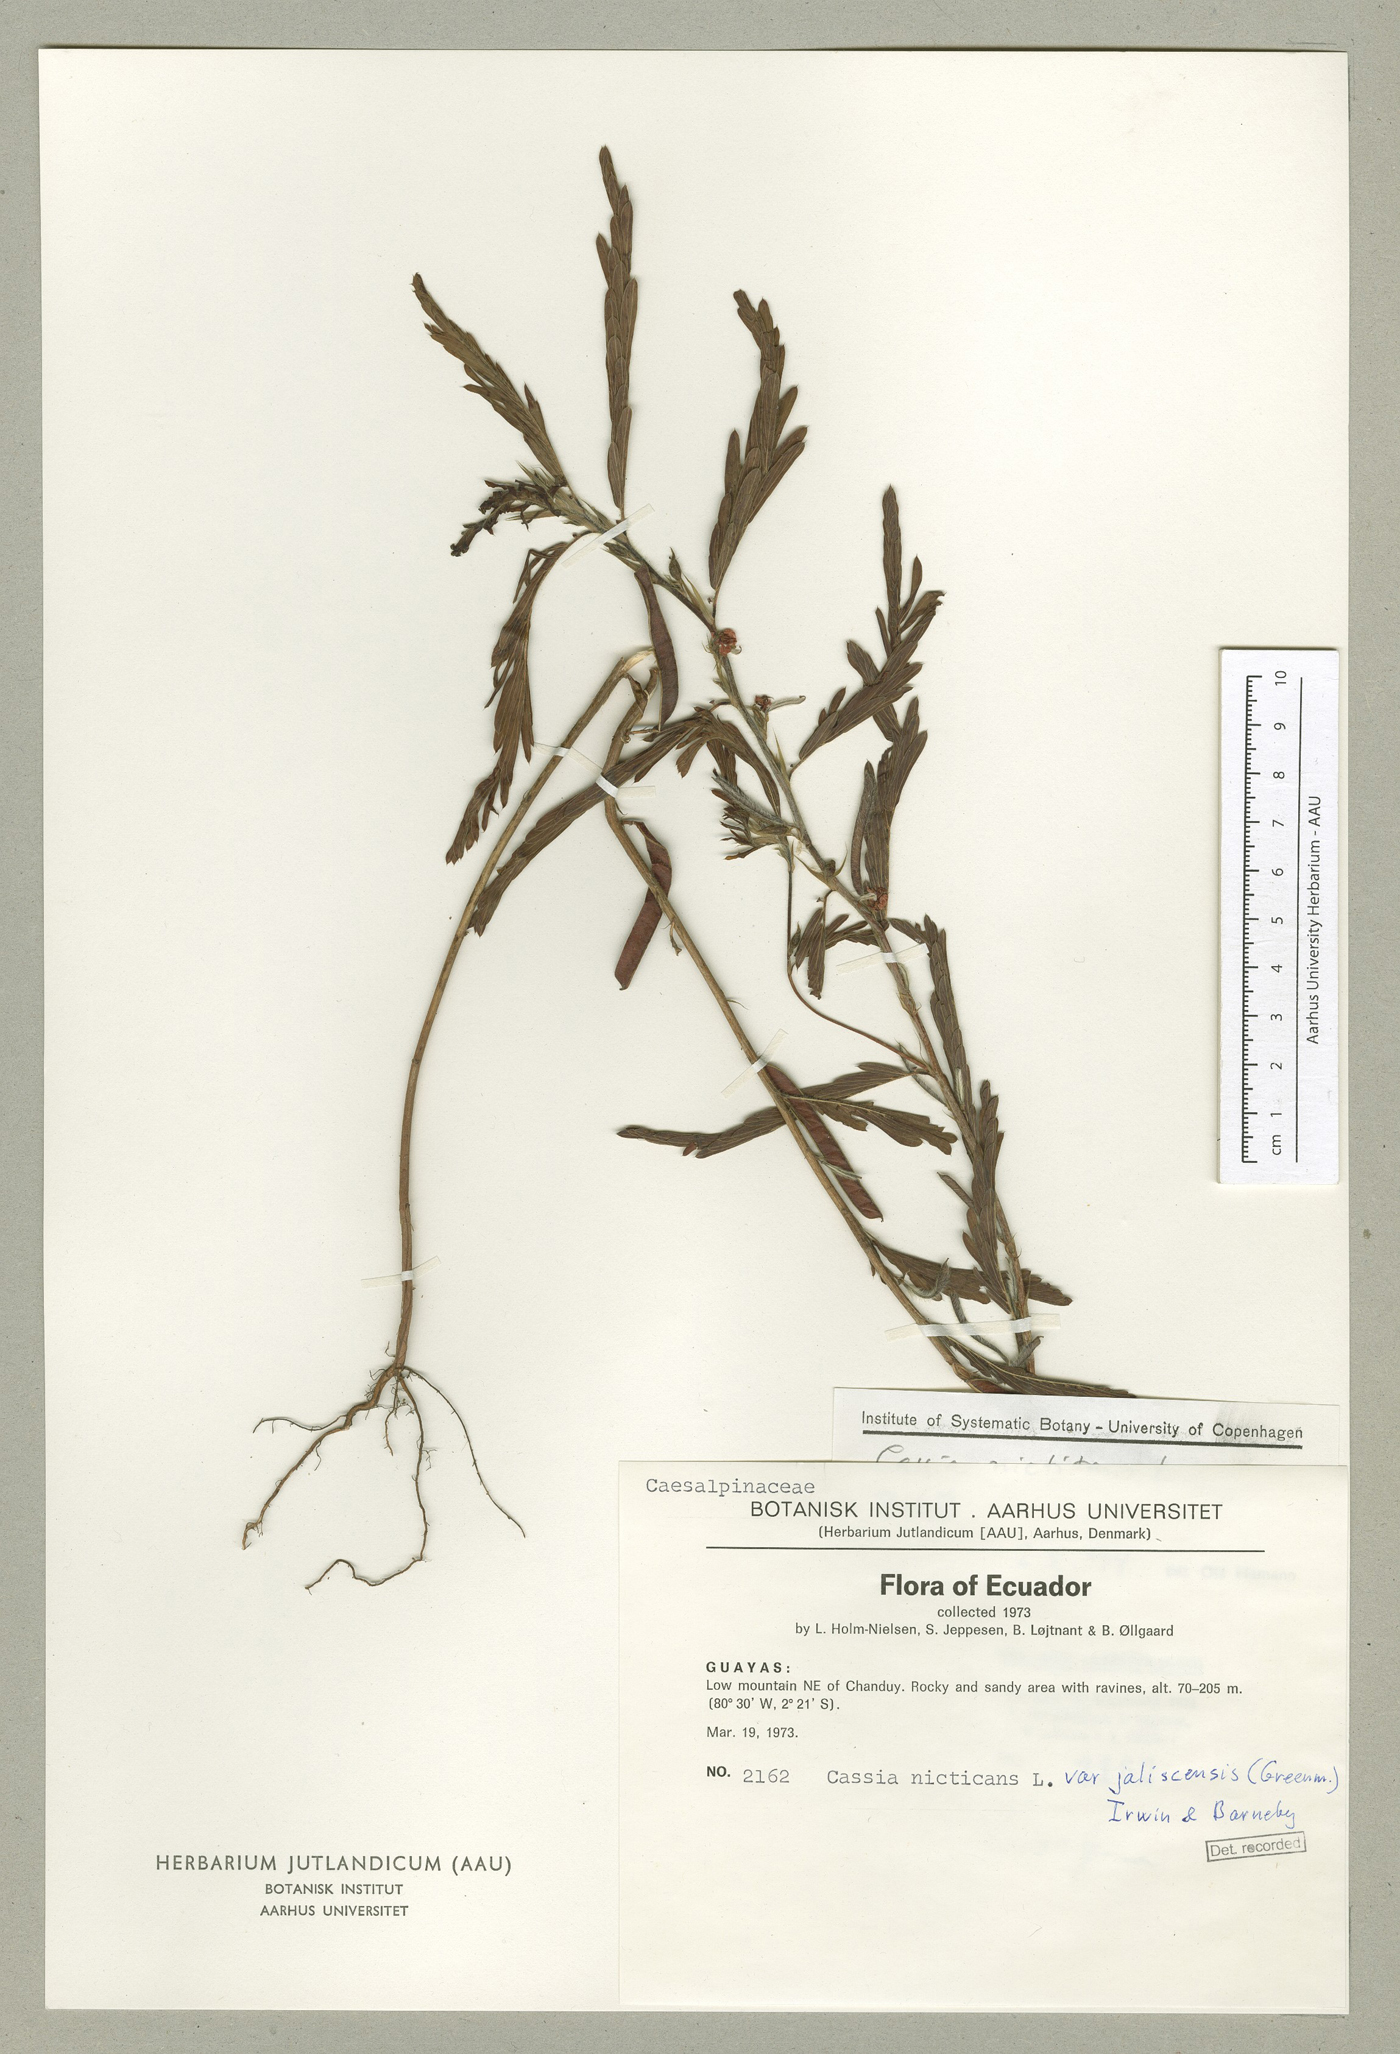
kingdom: Plantae
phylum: Tracheophyta
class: Magnoliopsida
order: Fabales
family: Fabaceae
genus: Chamaecrista
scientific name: Chamaecrista nictitans
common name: Sensitive cassia
